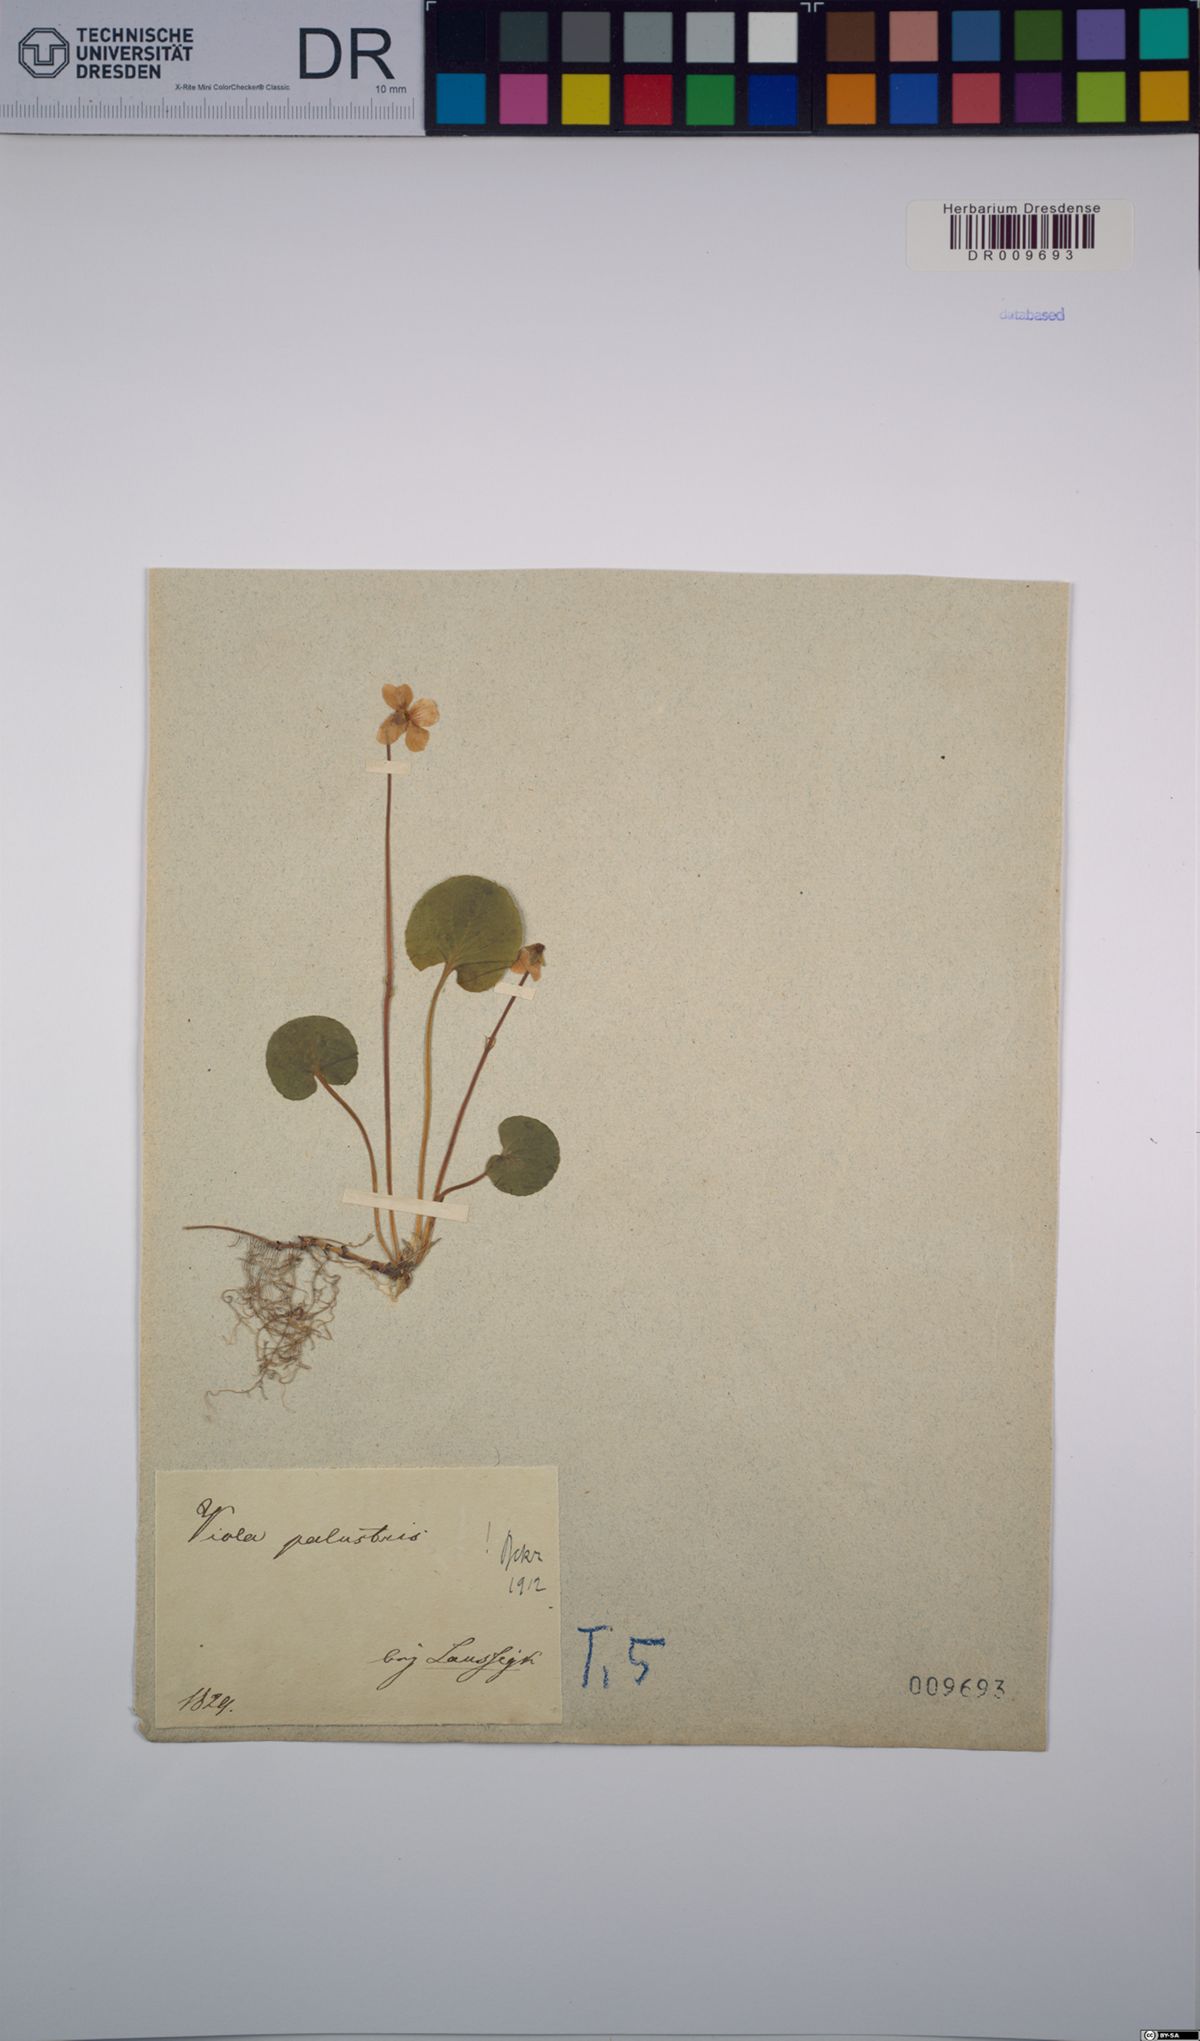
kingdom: Plantae
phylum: Tracheophyta
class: Magnoliopsida
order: Malpighiales
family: Violaceae
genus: Viola
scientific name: Viola palustris
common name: Marsh violet
